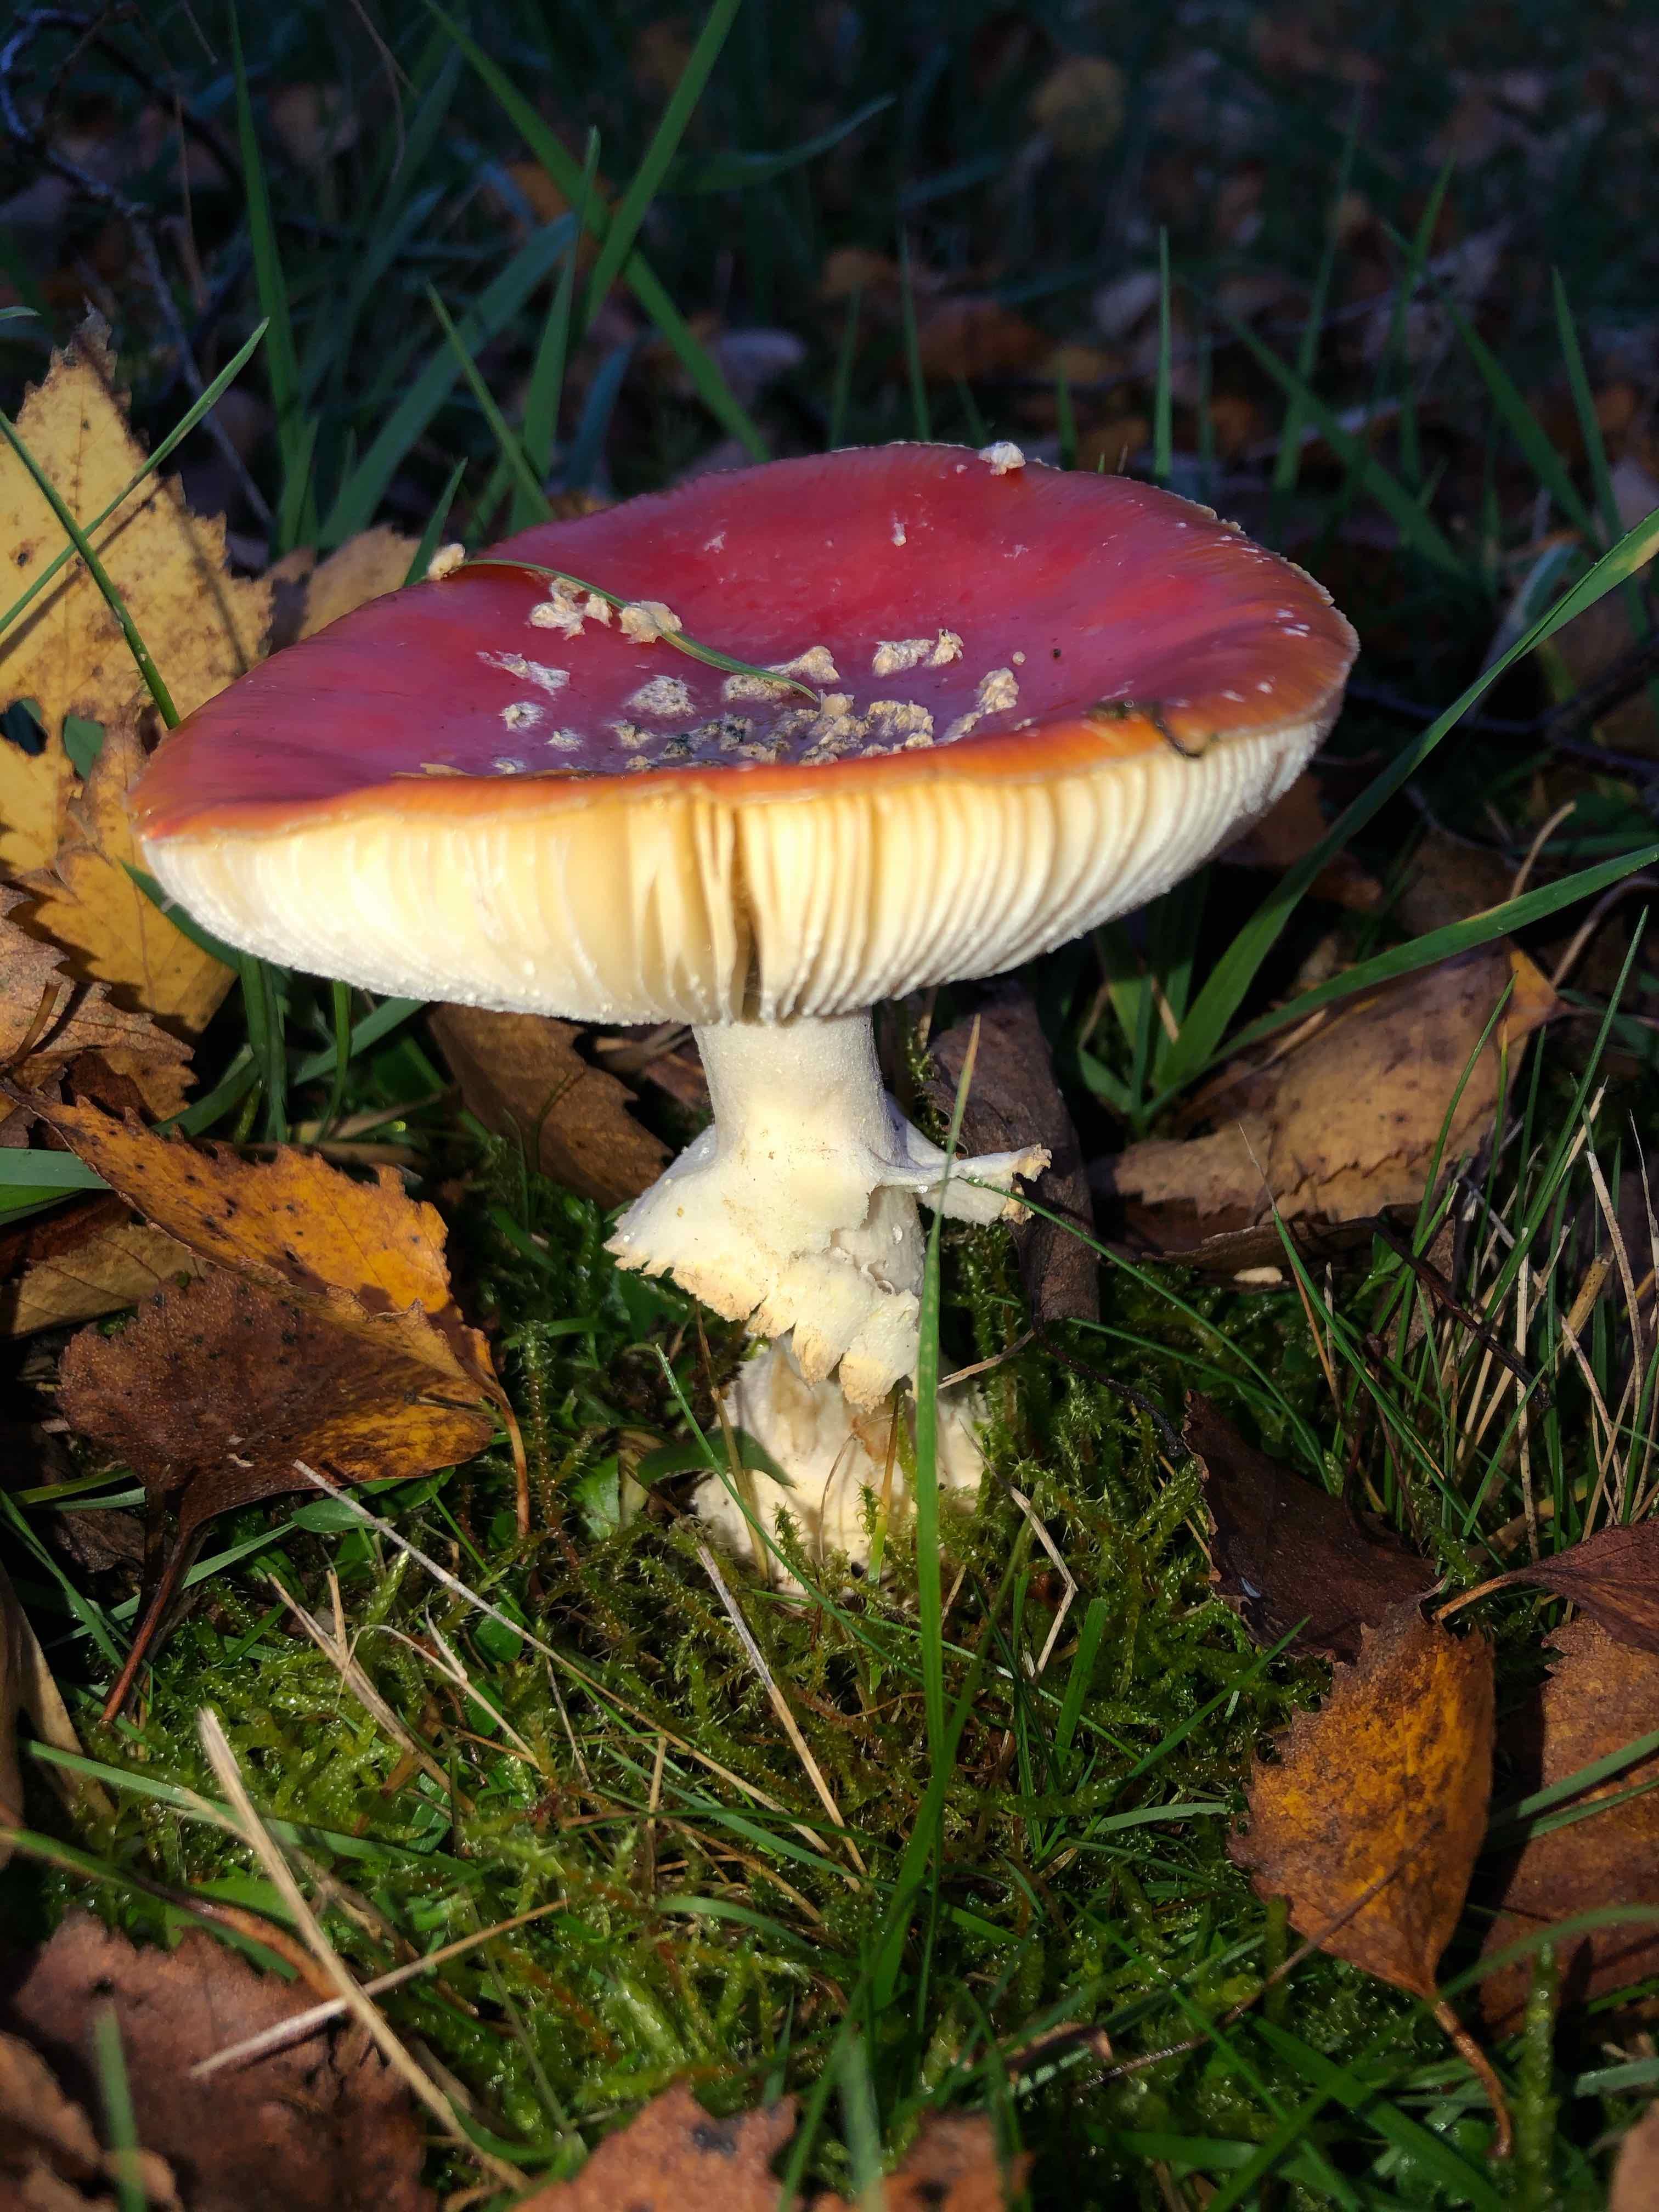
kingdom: Fungi
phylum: Basidiomycota
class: Agaricomycetes
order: Agaricales
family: Amanitaceae
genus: Amanita
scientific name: Amanita muscaria
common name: rød fluesvamp
